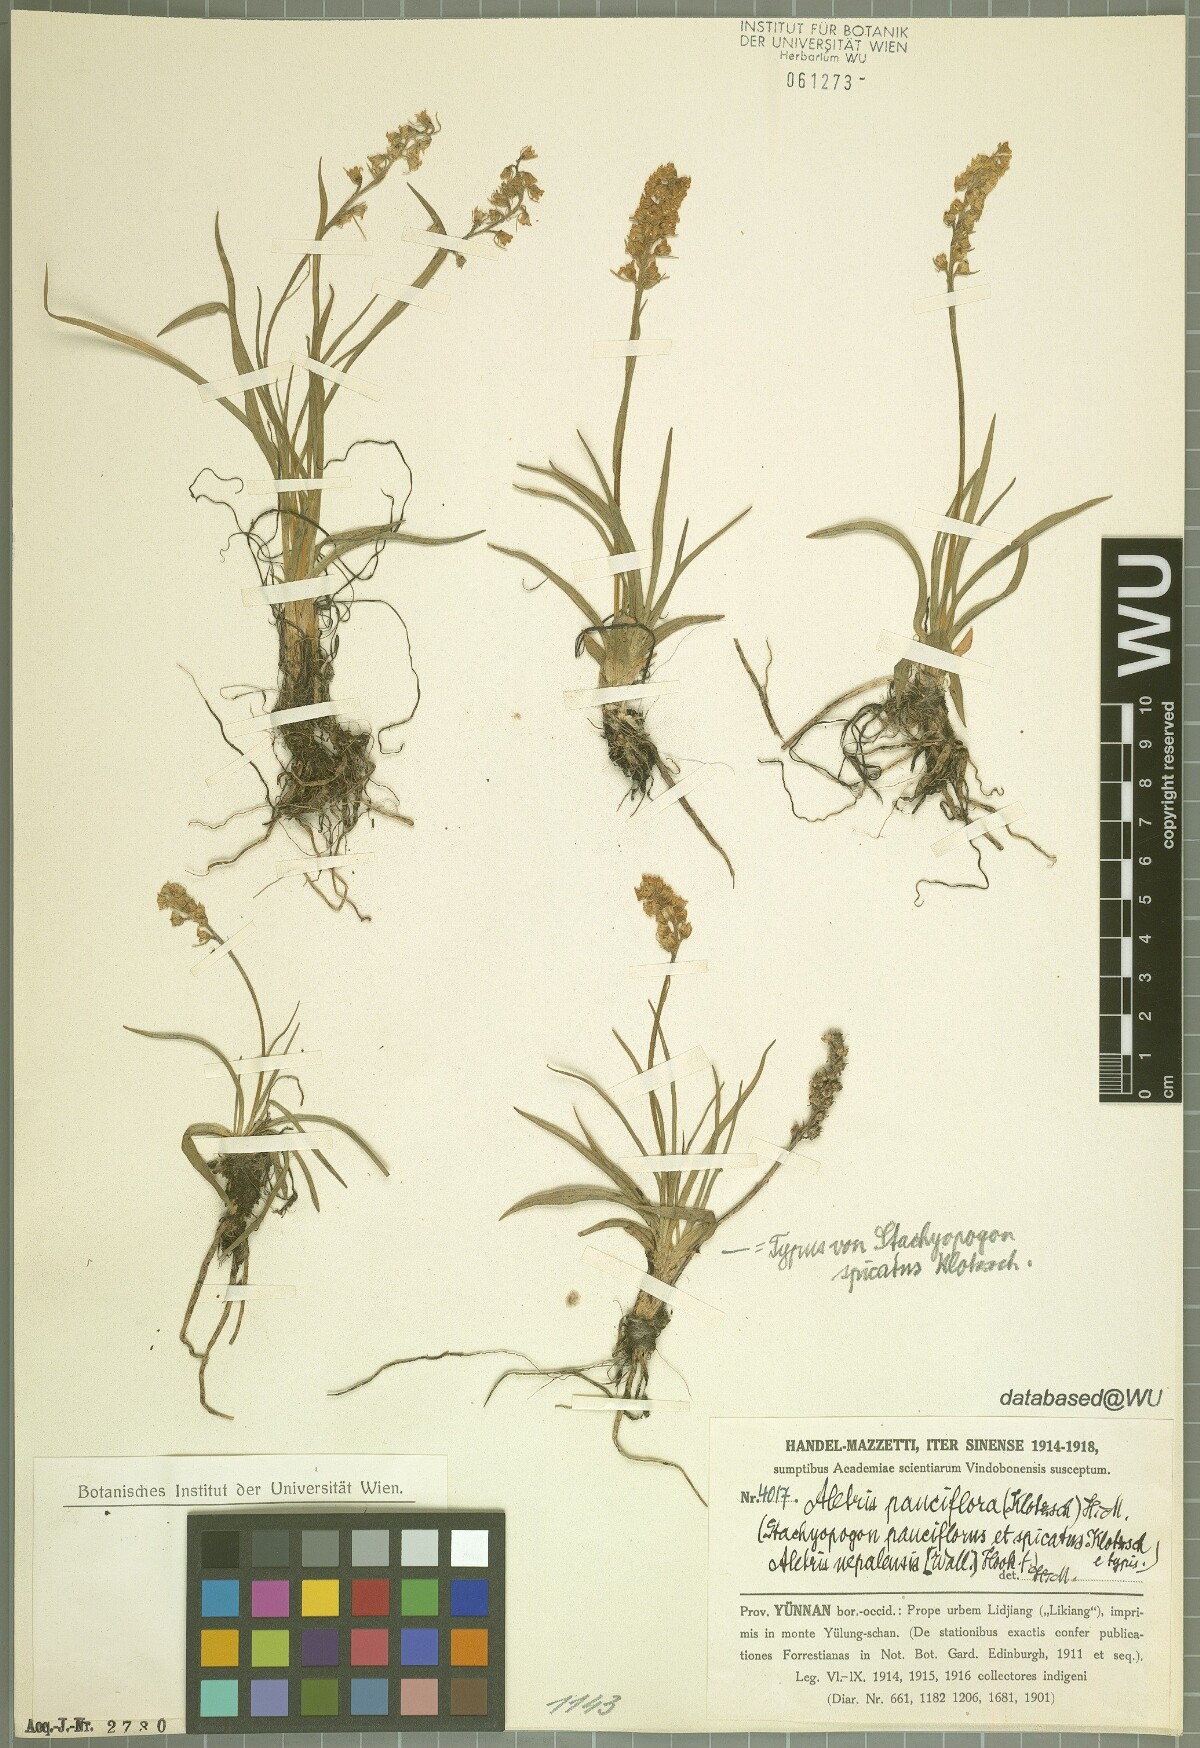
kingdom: Plantae
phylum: Tracheophyta
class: Liliopsida
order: Dioscoreales
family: Nartheciaceae
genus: Aletris
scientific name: Aletris pauciflora
